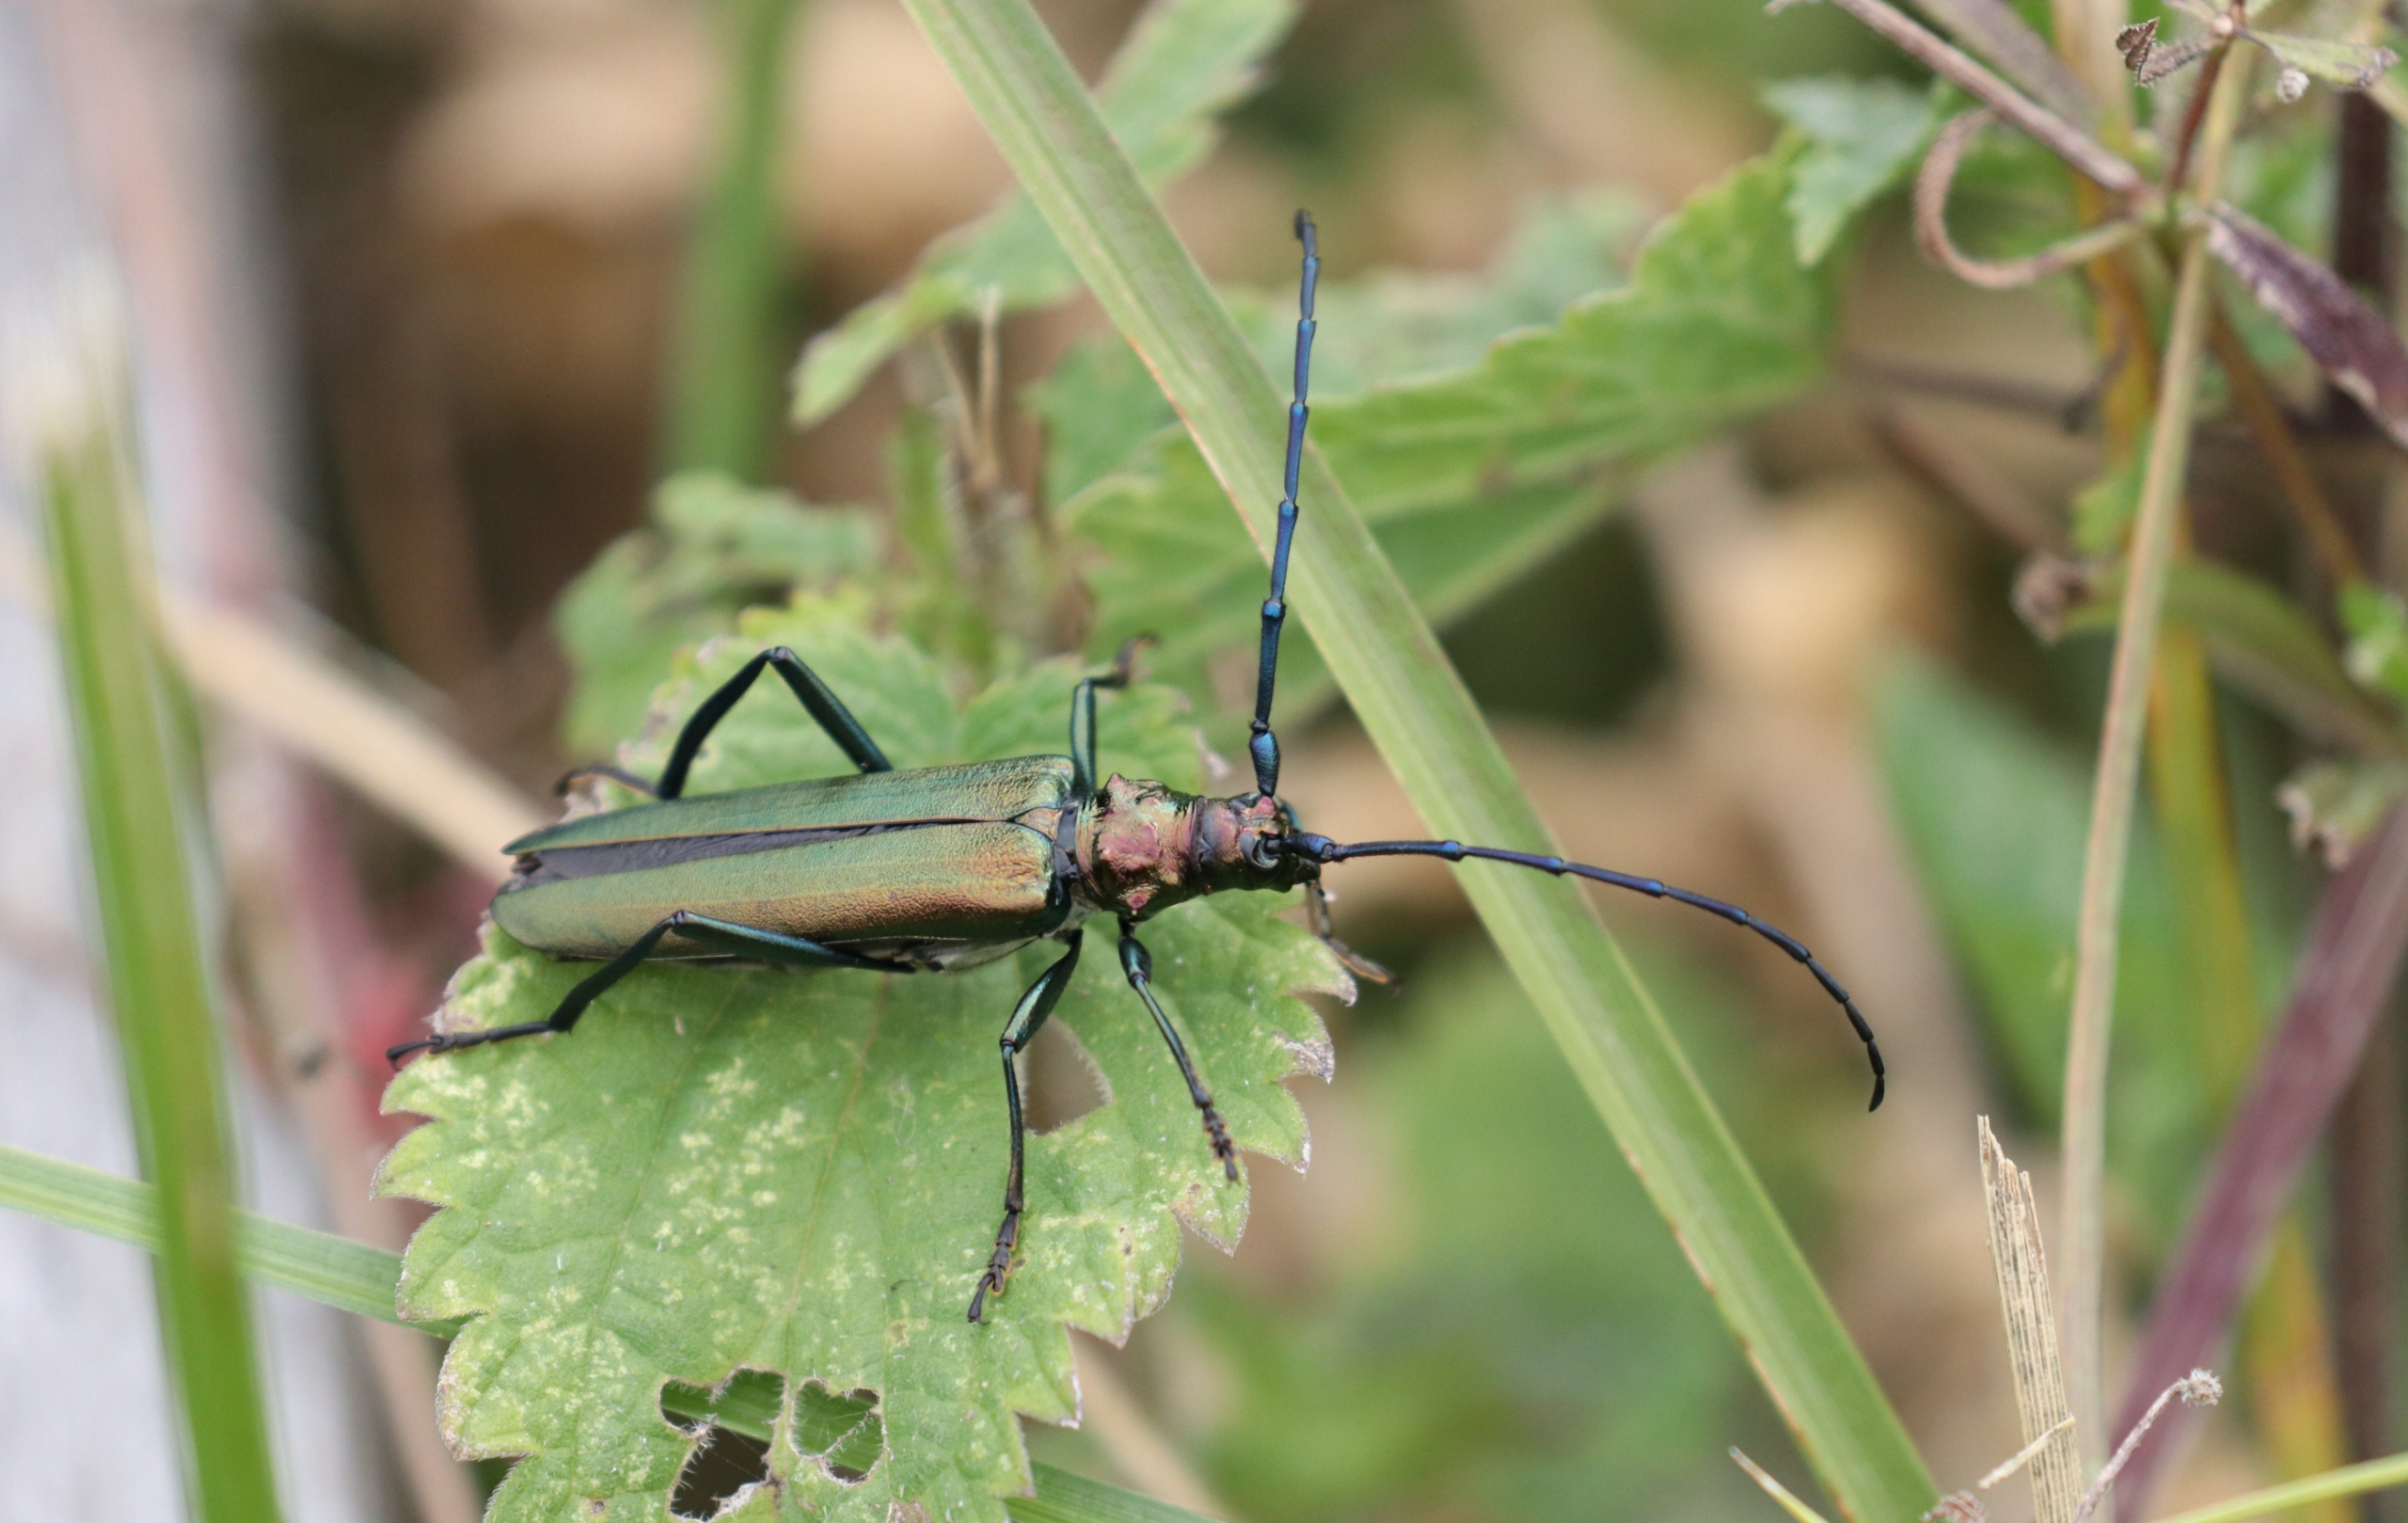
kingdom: Animalia
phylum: Arthropoda
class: Insecta
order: Coleoptera
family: Cerambycidae
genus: Aromia
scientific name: Aromia moschata
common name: Moskusbuk
